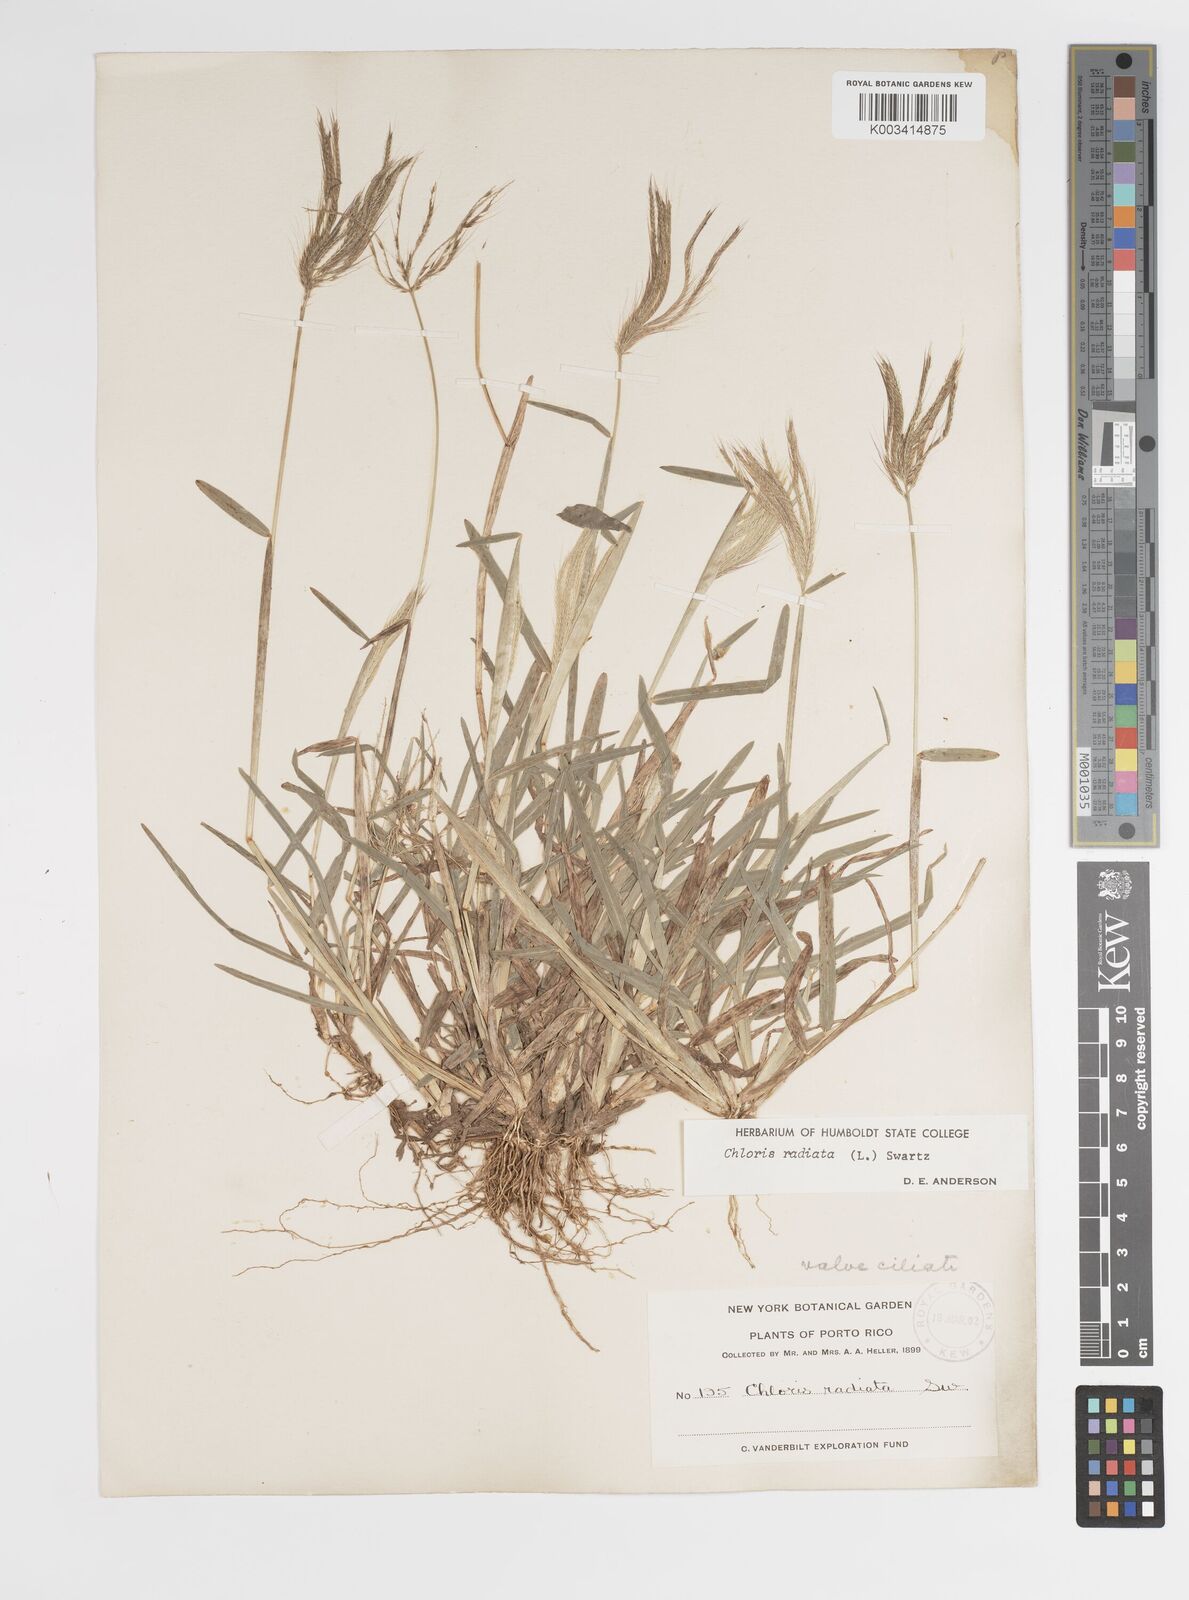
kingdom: Plantae
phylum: Tracheophyta
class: Liliopsida
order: Poales
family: Poaceae
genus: Chloris
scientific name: Chloris radiata
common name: Radiate fingergrass
